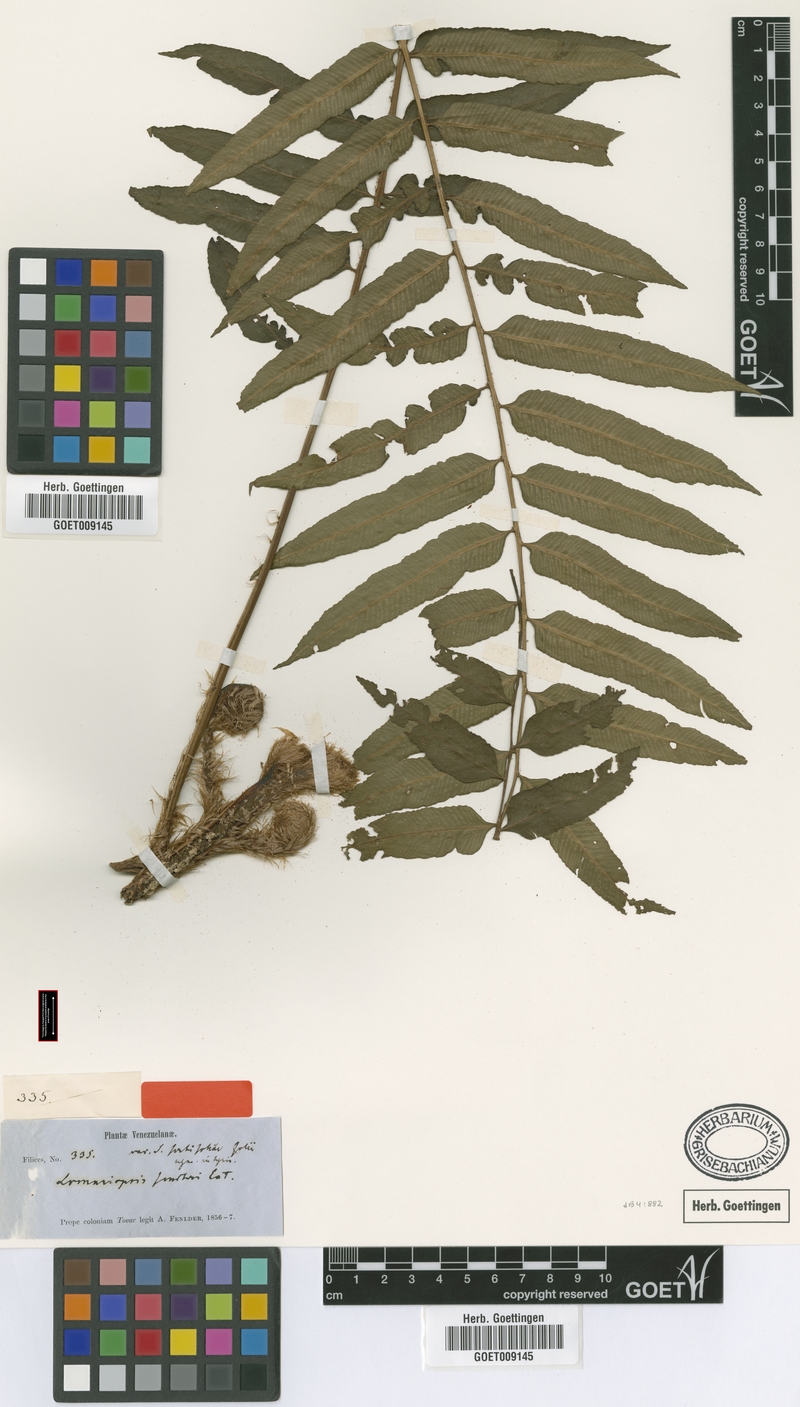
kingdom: Plantae
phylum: Tracheophyta
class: Polypodiopsida
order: Polypodiales
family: Lomariopsidaceae
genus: Lomariopsis
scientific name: Lomariopsis sorbifolia
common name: Acacia fringedfern
